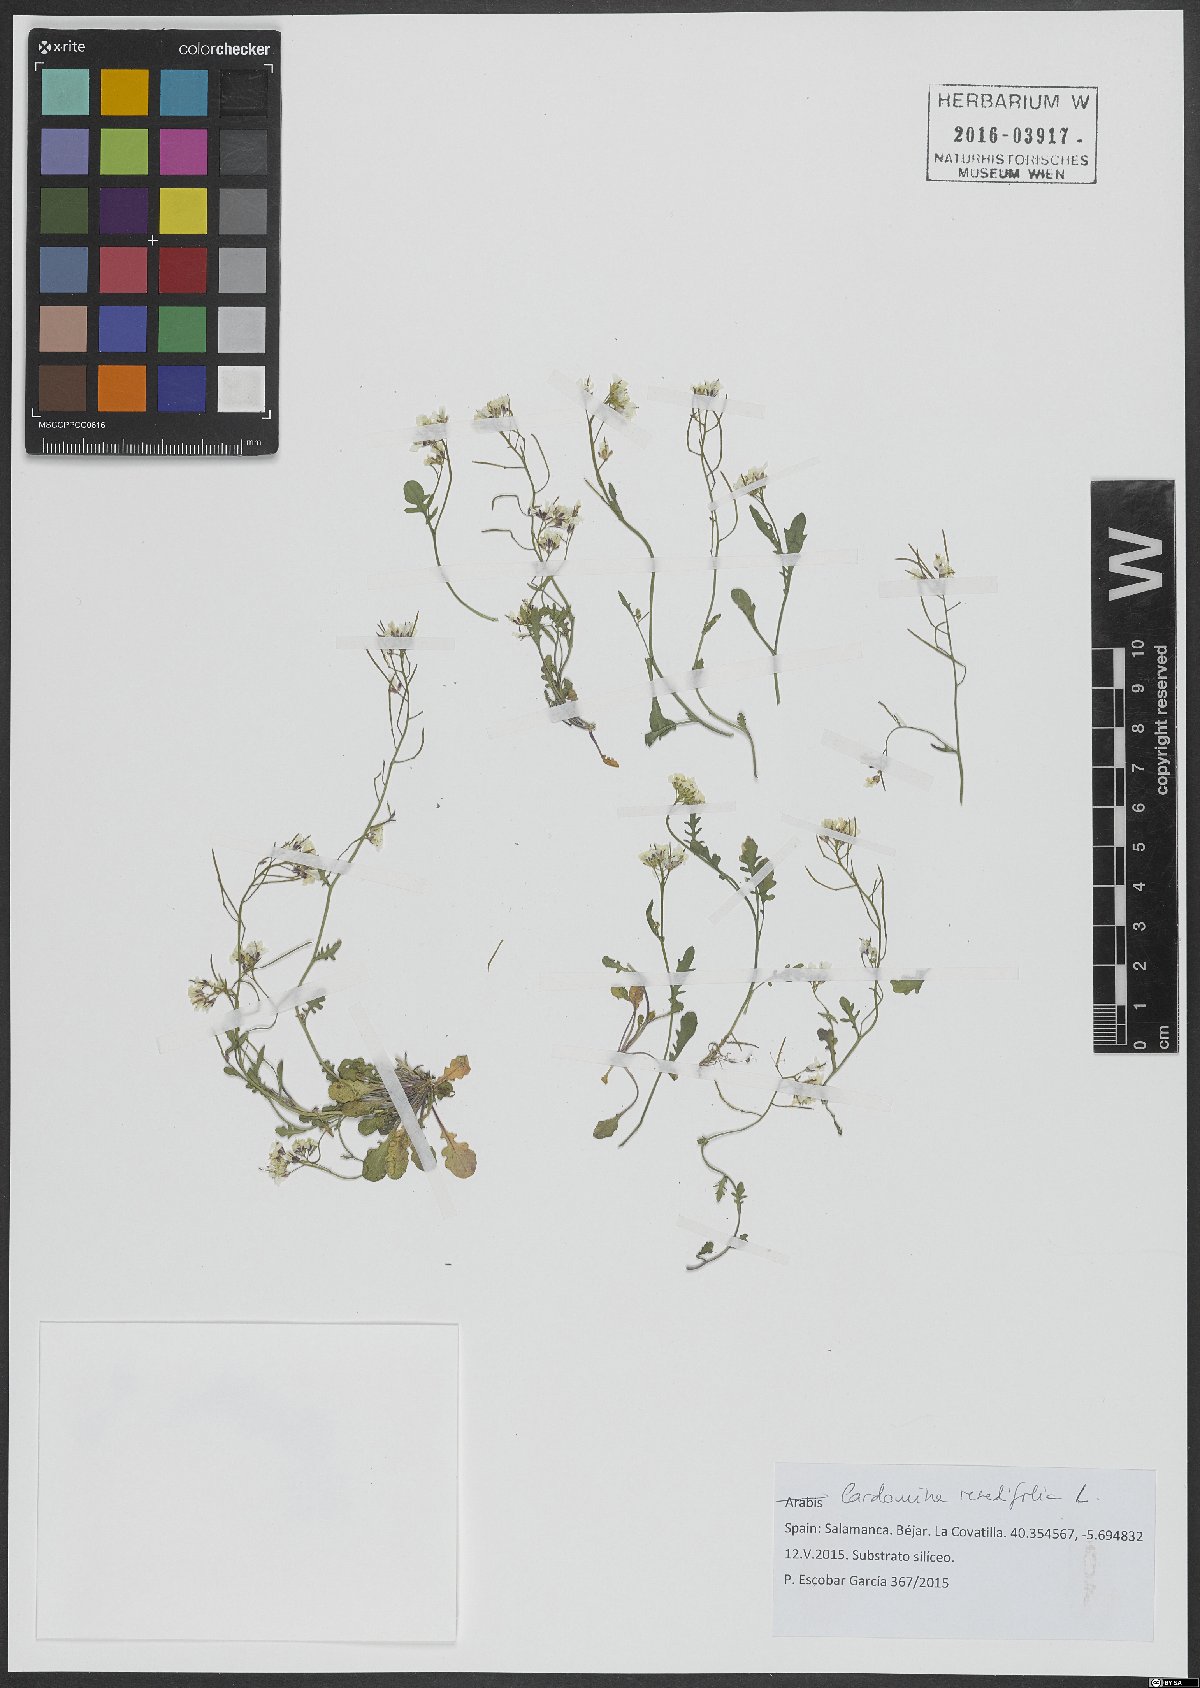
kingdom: Plantae
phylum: Tracheophyta
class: Magnoliopsida
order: Brassicales
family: Brassicaceae
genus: Cardamine
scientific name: Cardamine resedifolia
